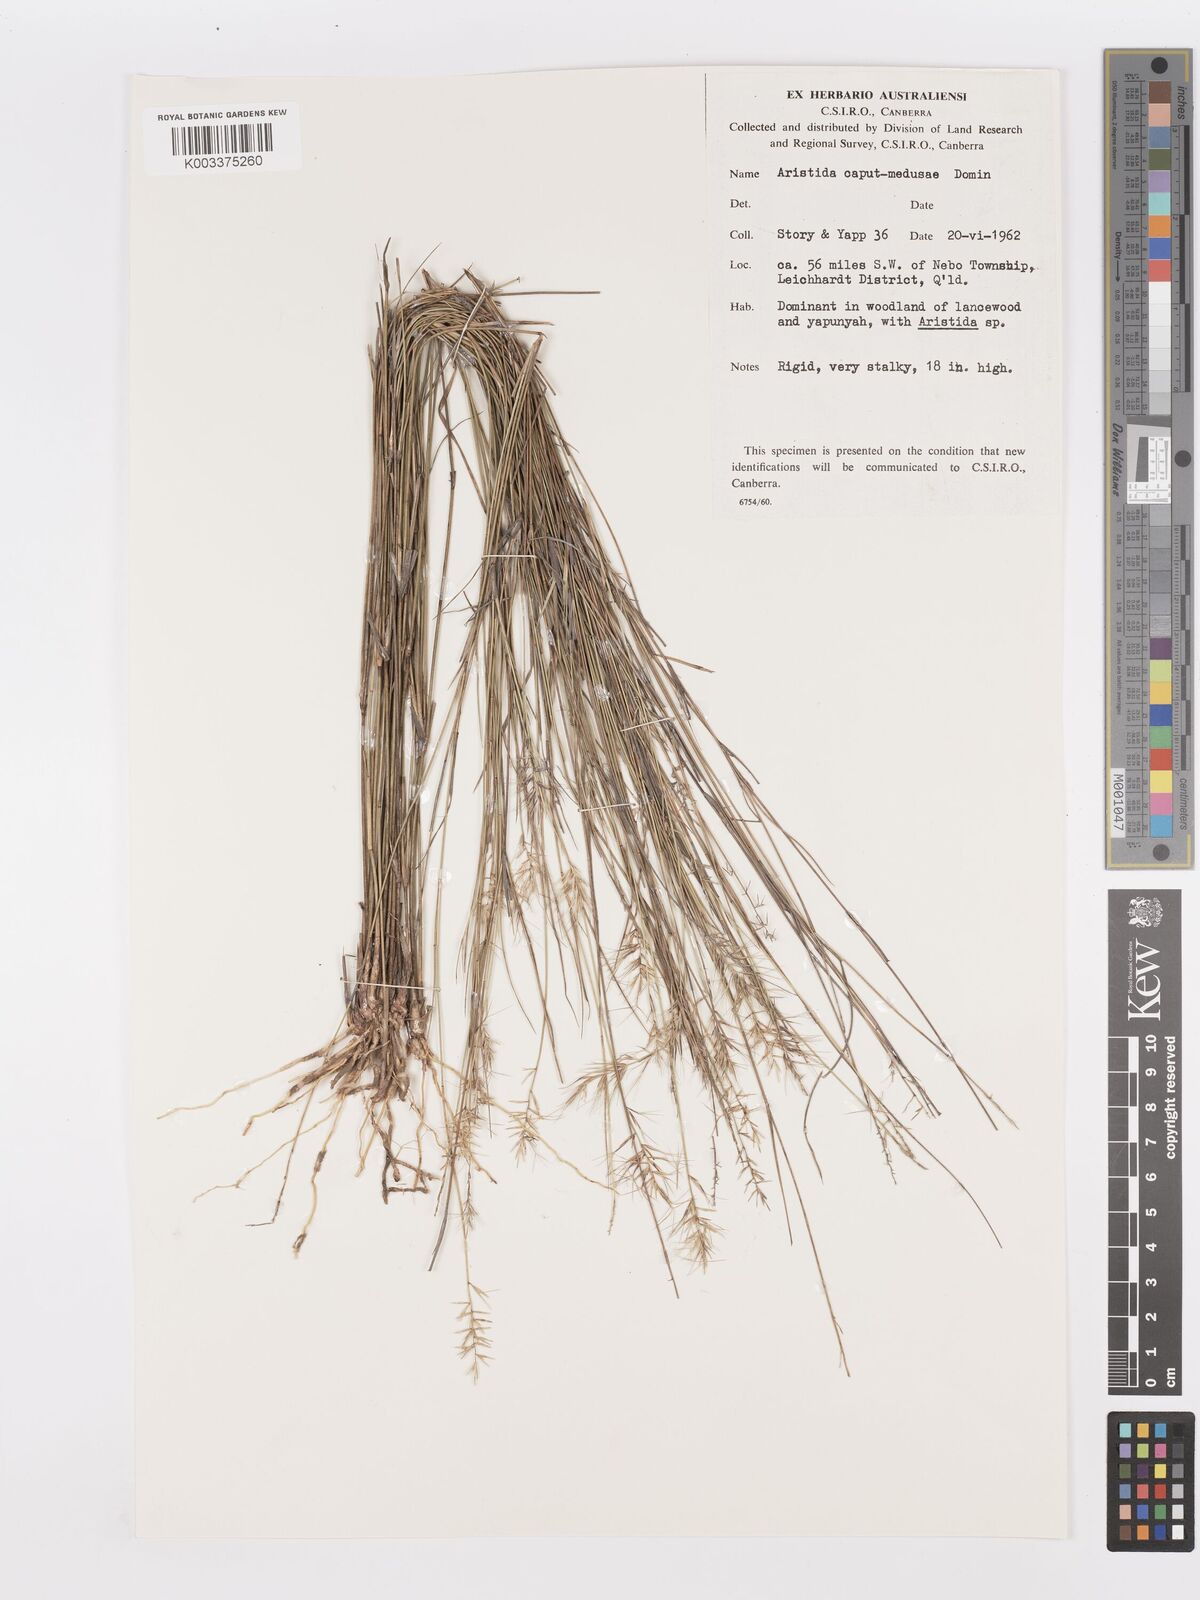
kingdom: Plantae
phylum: Tracheophyta
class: Liliopsida
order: Poales
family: Poaceae
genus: Aristida
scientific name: Aristida caput-medusae
